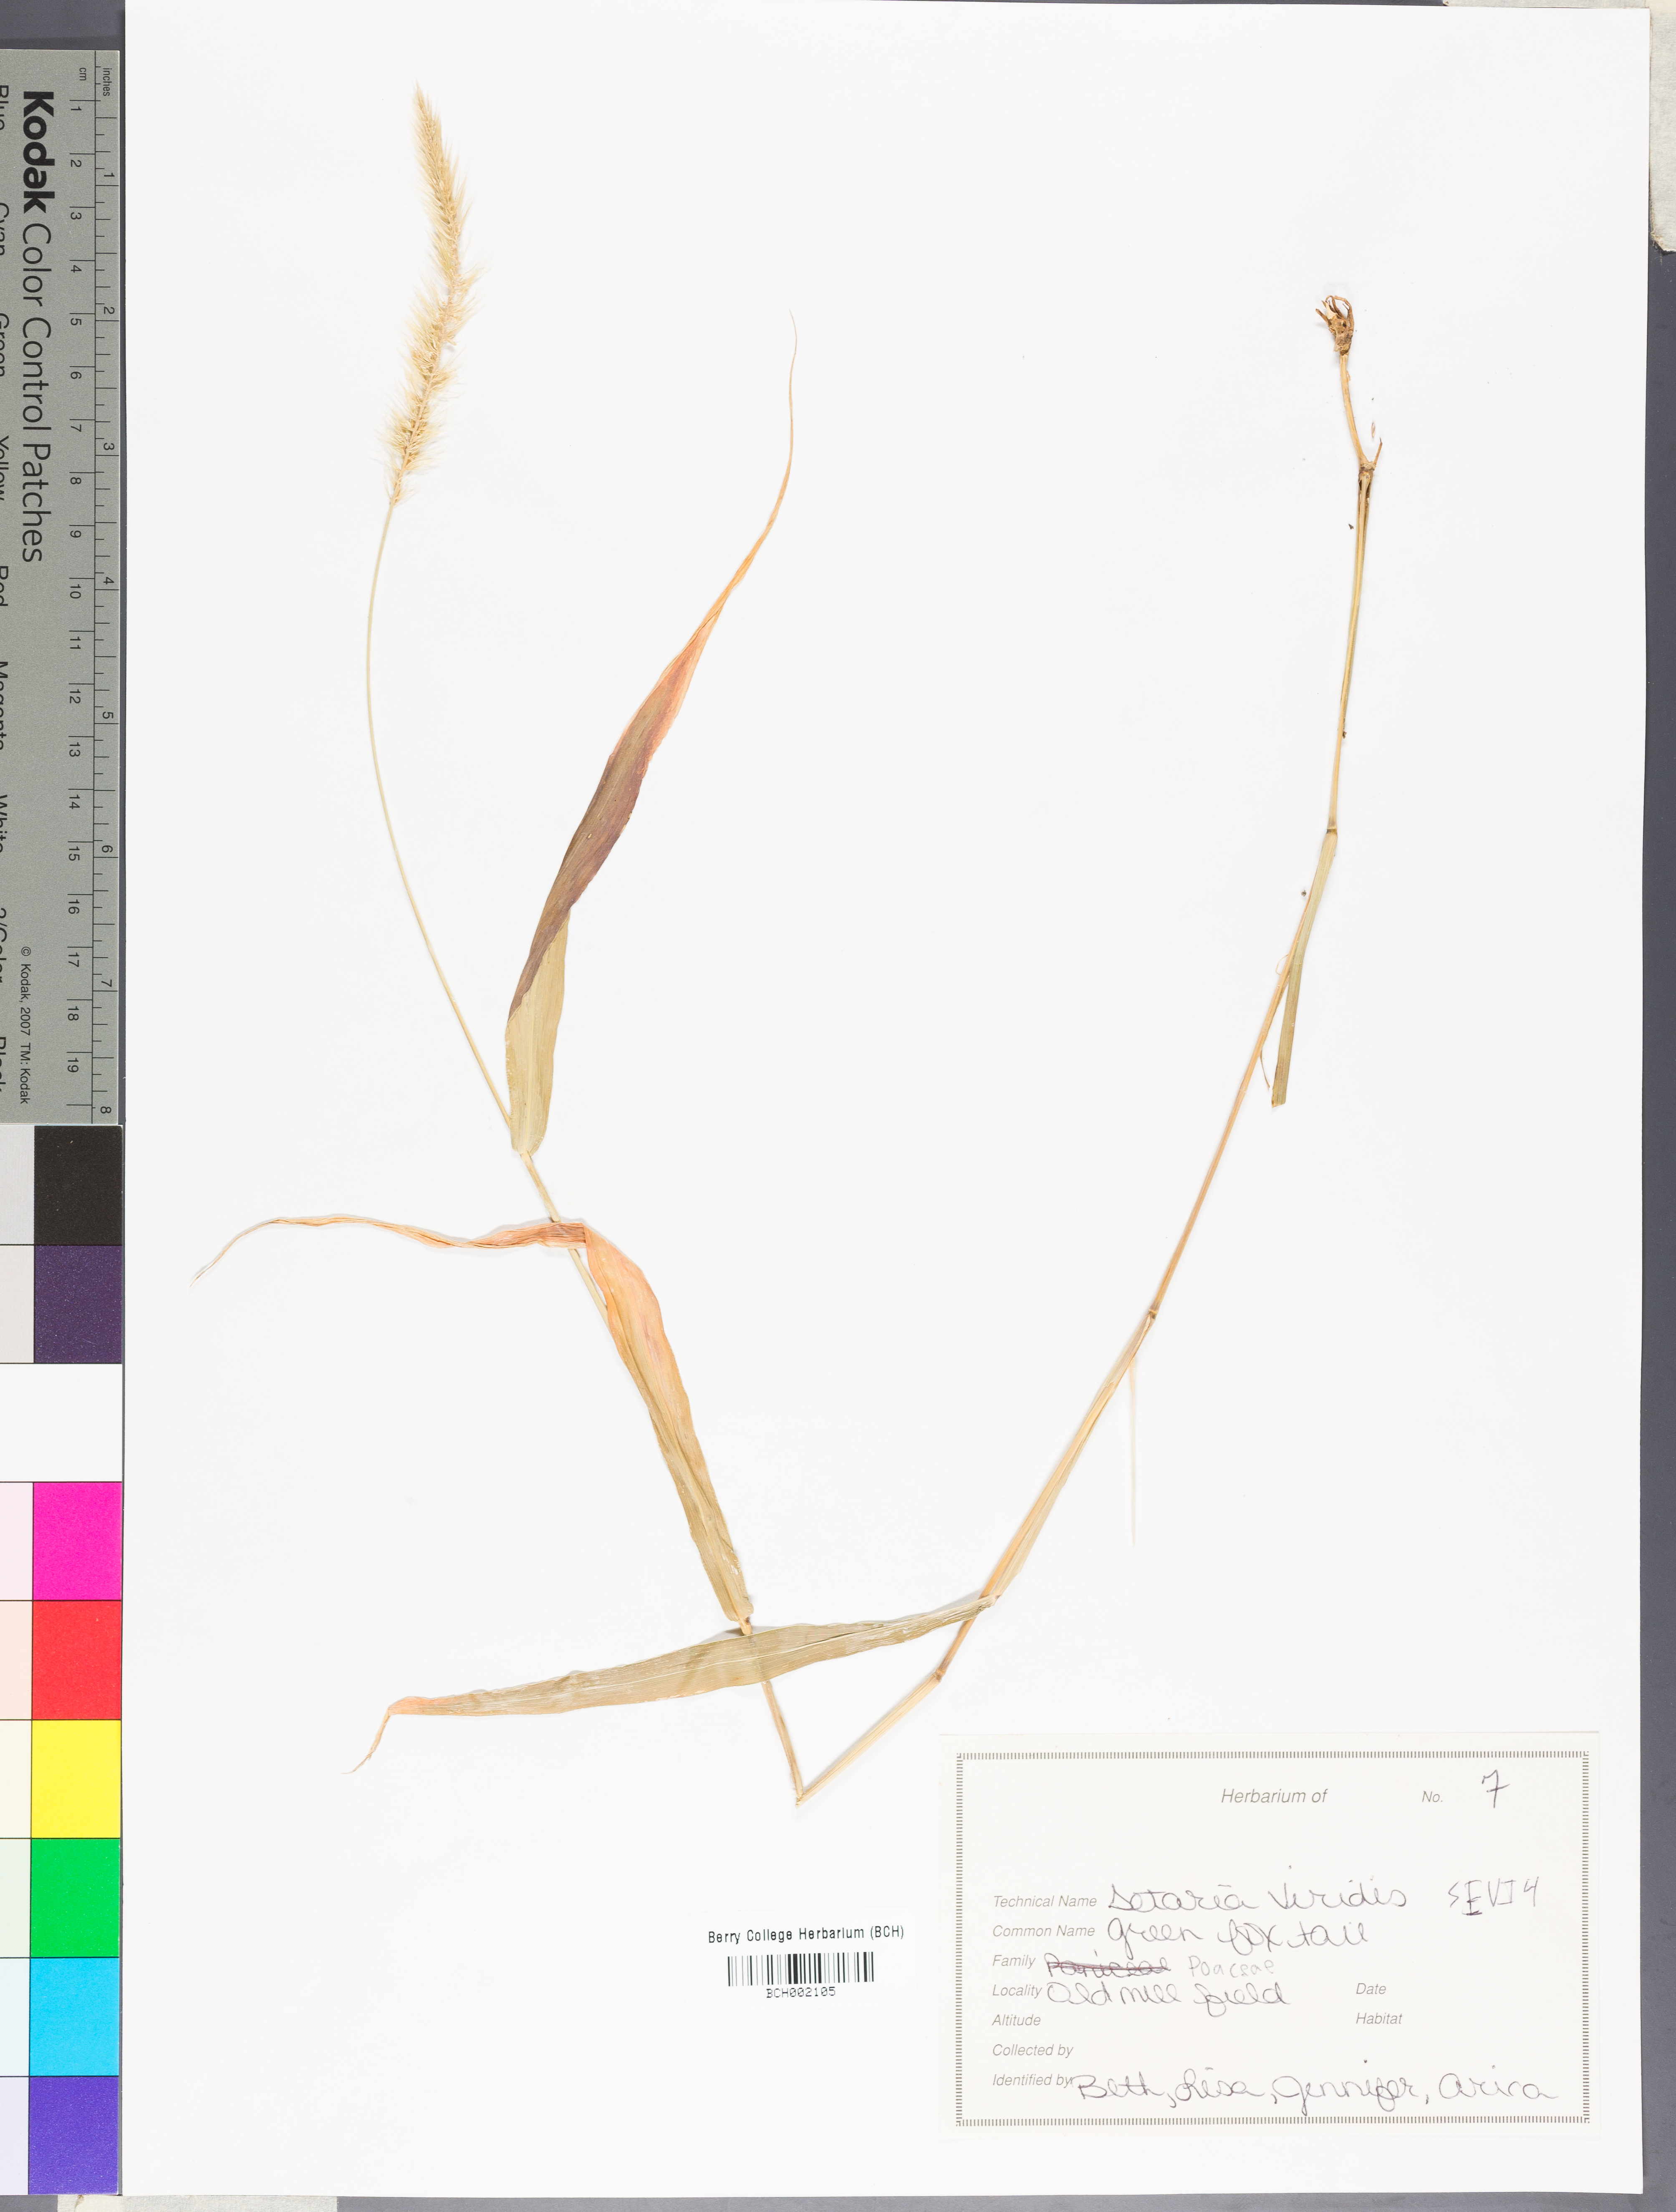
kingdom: Plantae
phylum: Tracheophyta
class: Liliopsida
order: Poales
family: Poaceae
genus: Setaria
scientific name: Setaria viridis
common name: Green bristlegrass
